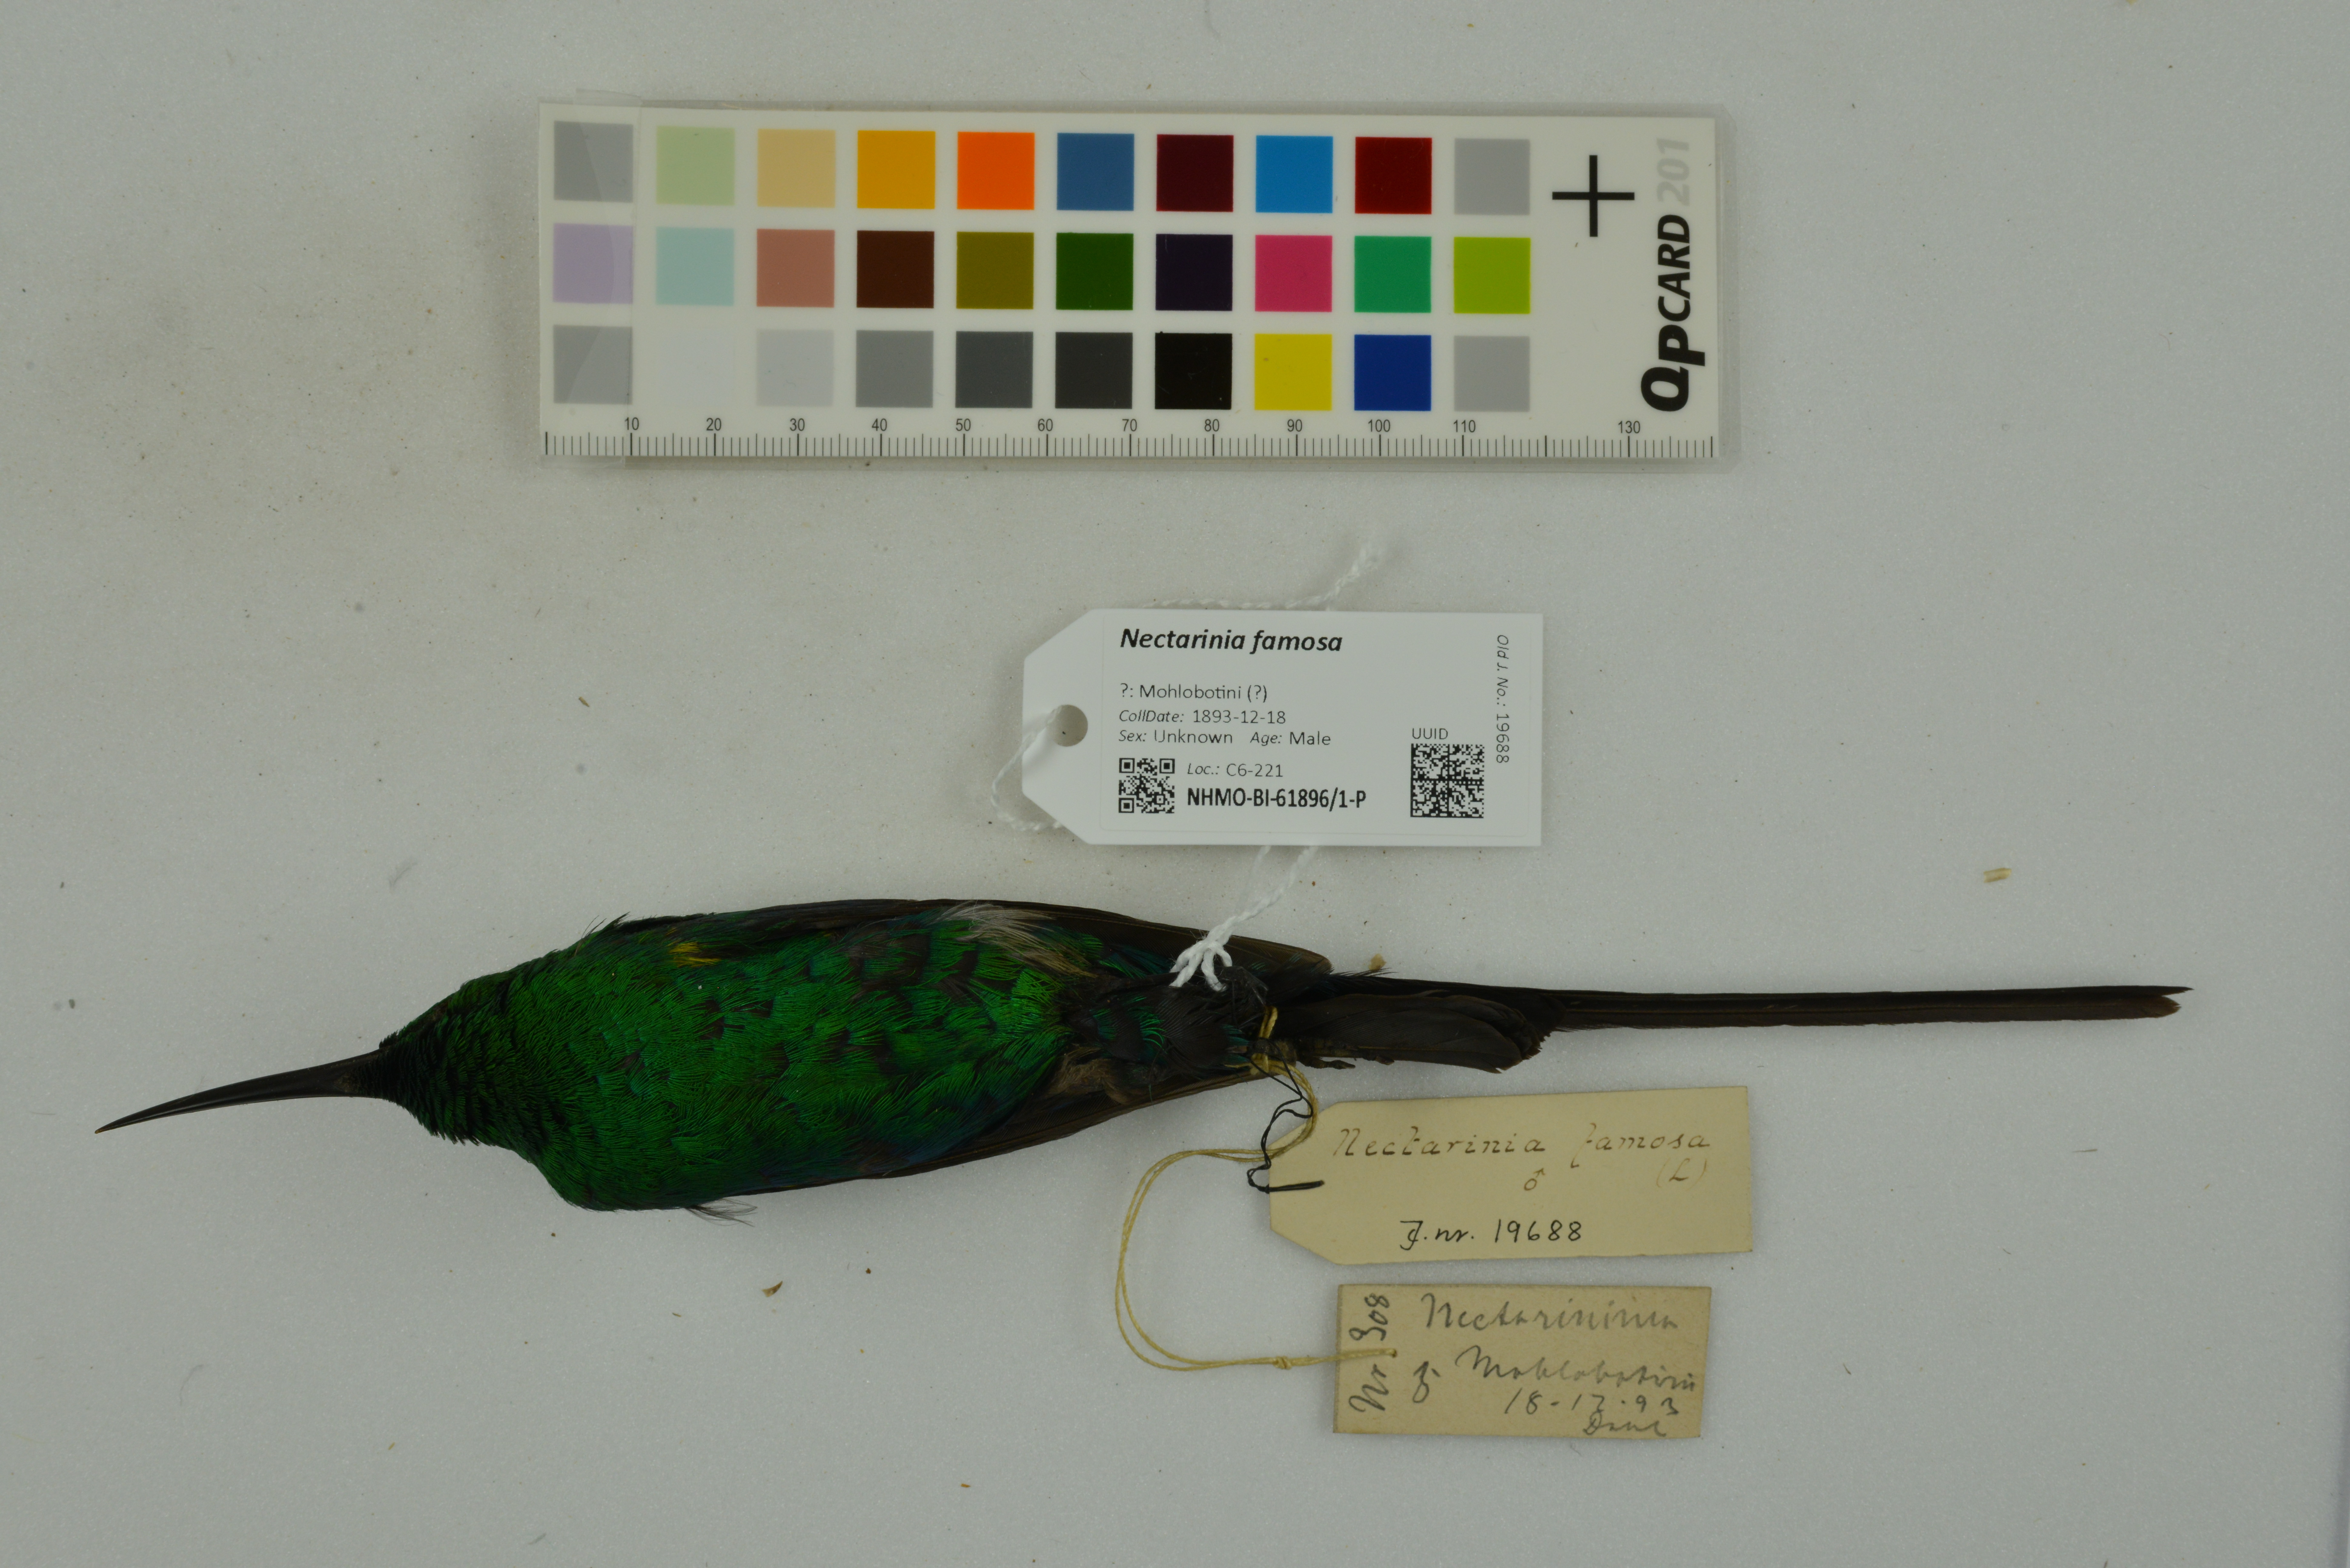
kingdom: Animalia
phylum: Chordata
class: Aves
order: Passeriformes
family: Nectariniidae
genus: Nectarinia
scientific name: Nectarinia famosa
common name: Malachite sunbird
